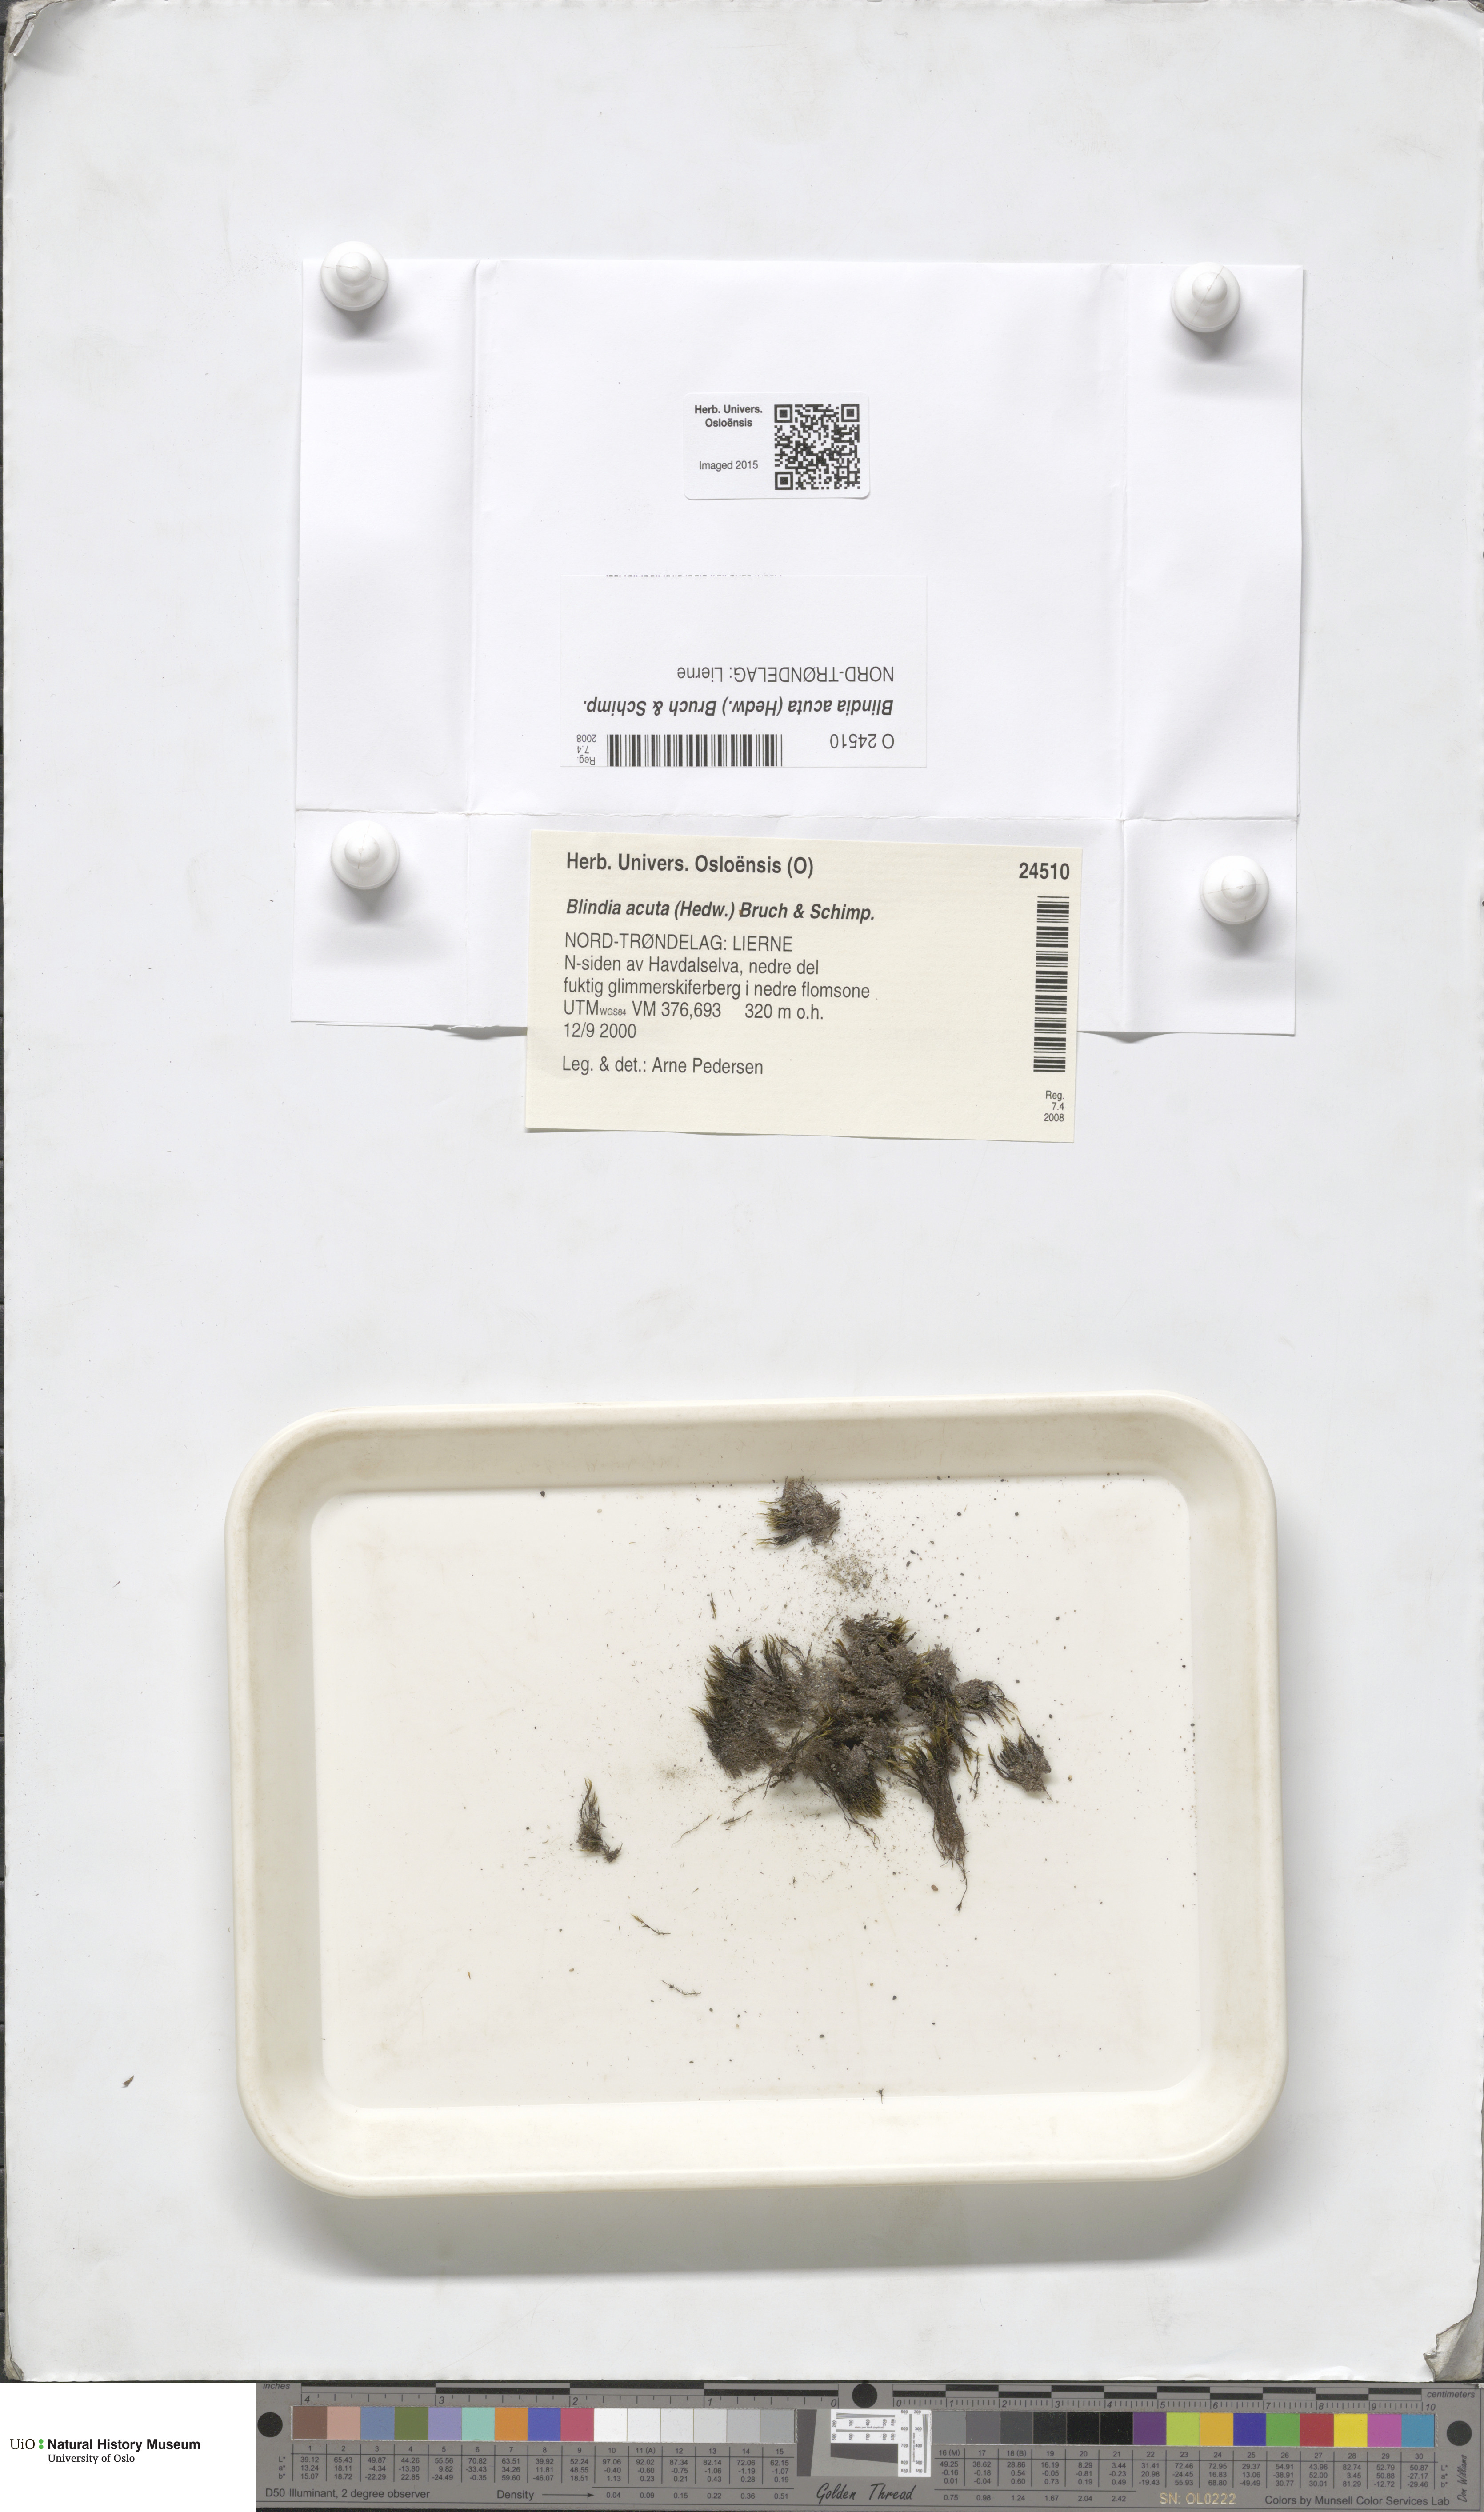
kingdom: Plantae
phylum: Bryophyta
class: Bryopsida
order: Grimmiales
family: Seligeriaceae
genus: Blindia
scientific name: Blindia acuta
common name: Sharp-leaved blind's moss
